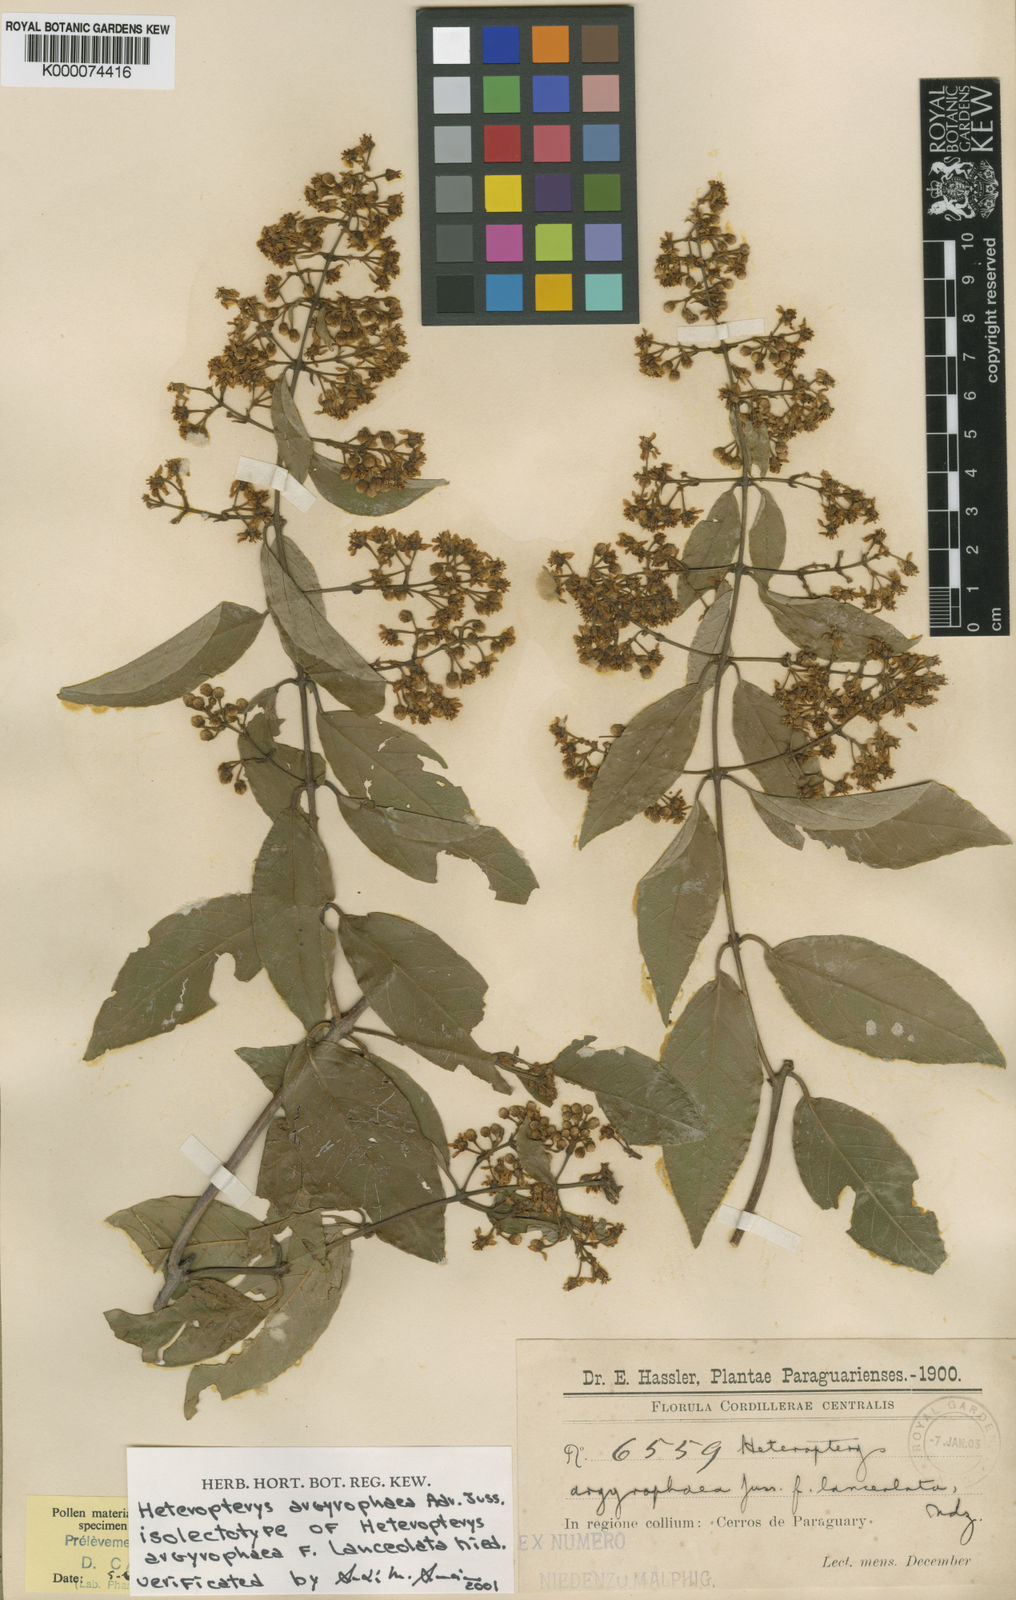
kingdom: Plantae
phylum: Tracheophyta
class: Magnoliopsida
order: Malpighiales
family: Malpighiaceae
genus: Heteropterys
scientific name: Heteropterys argyrophaea
